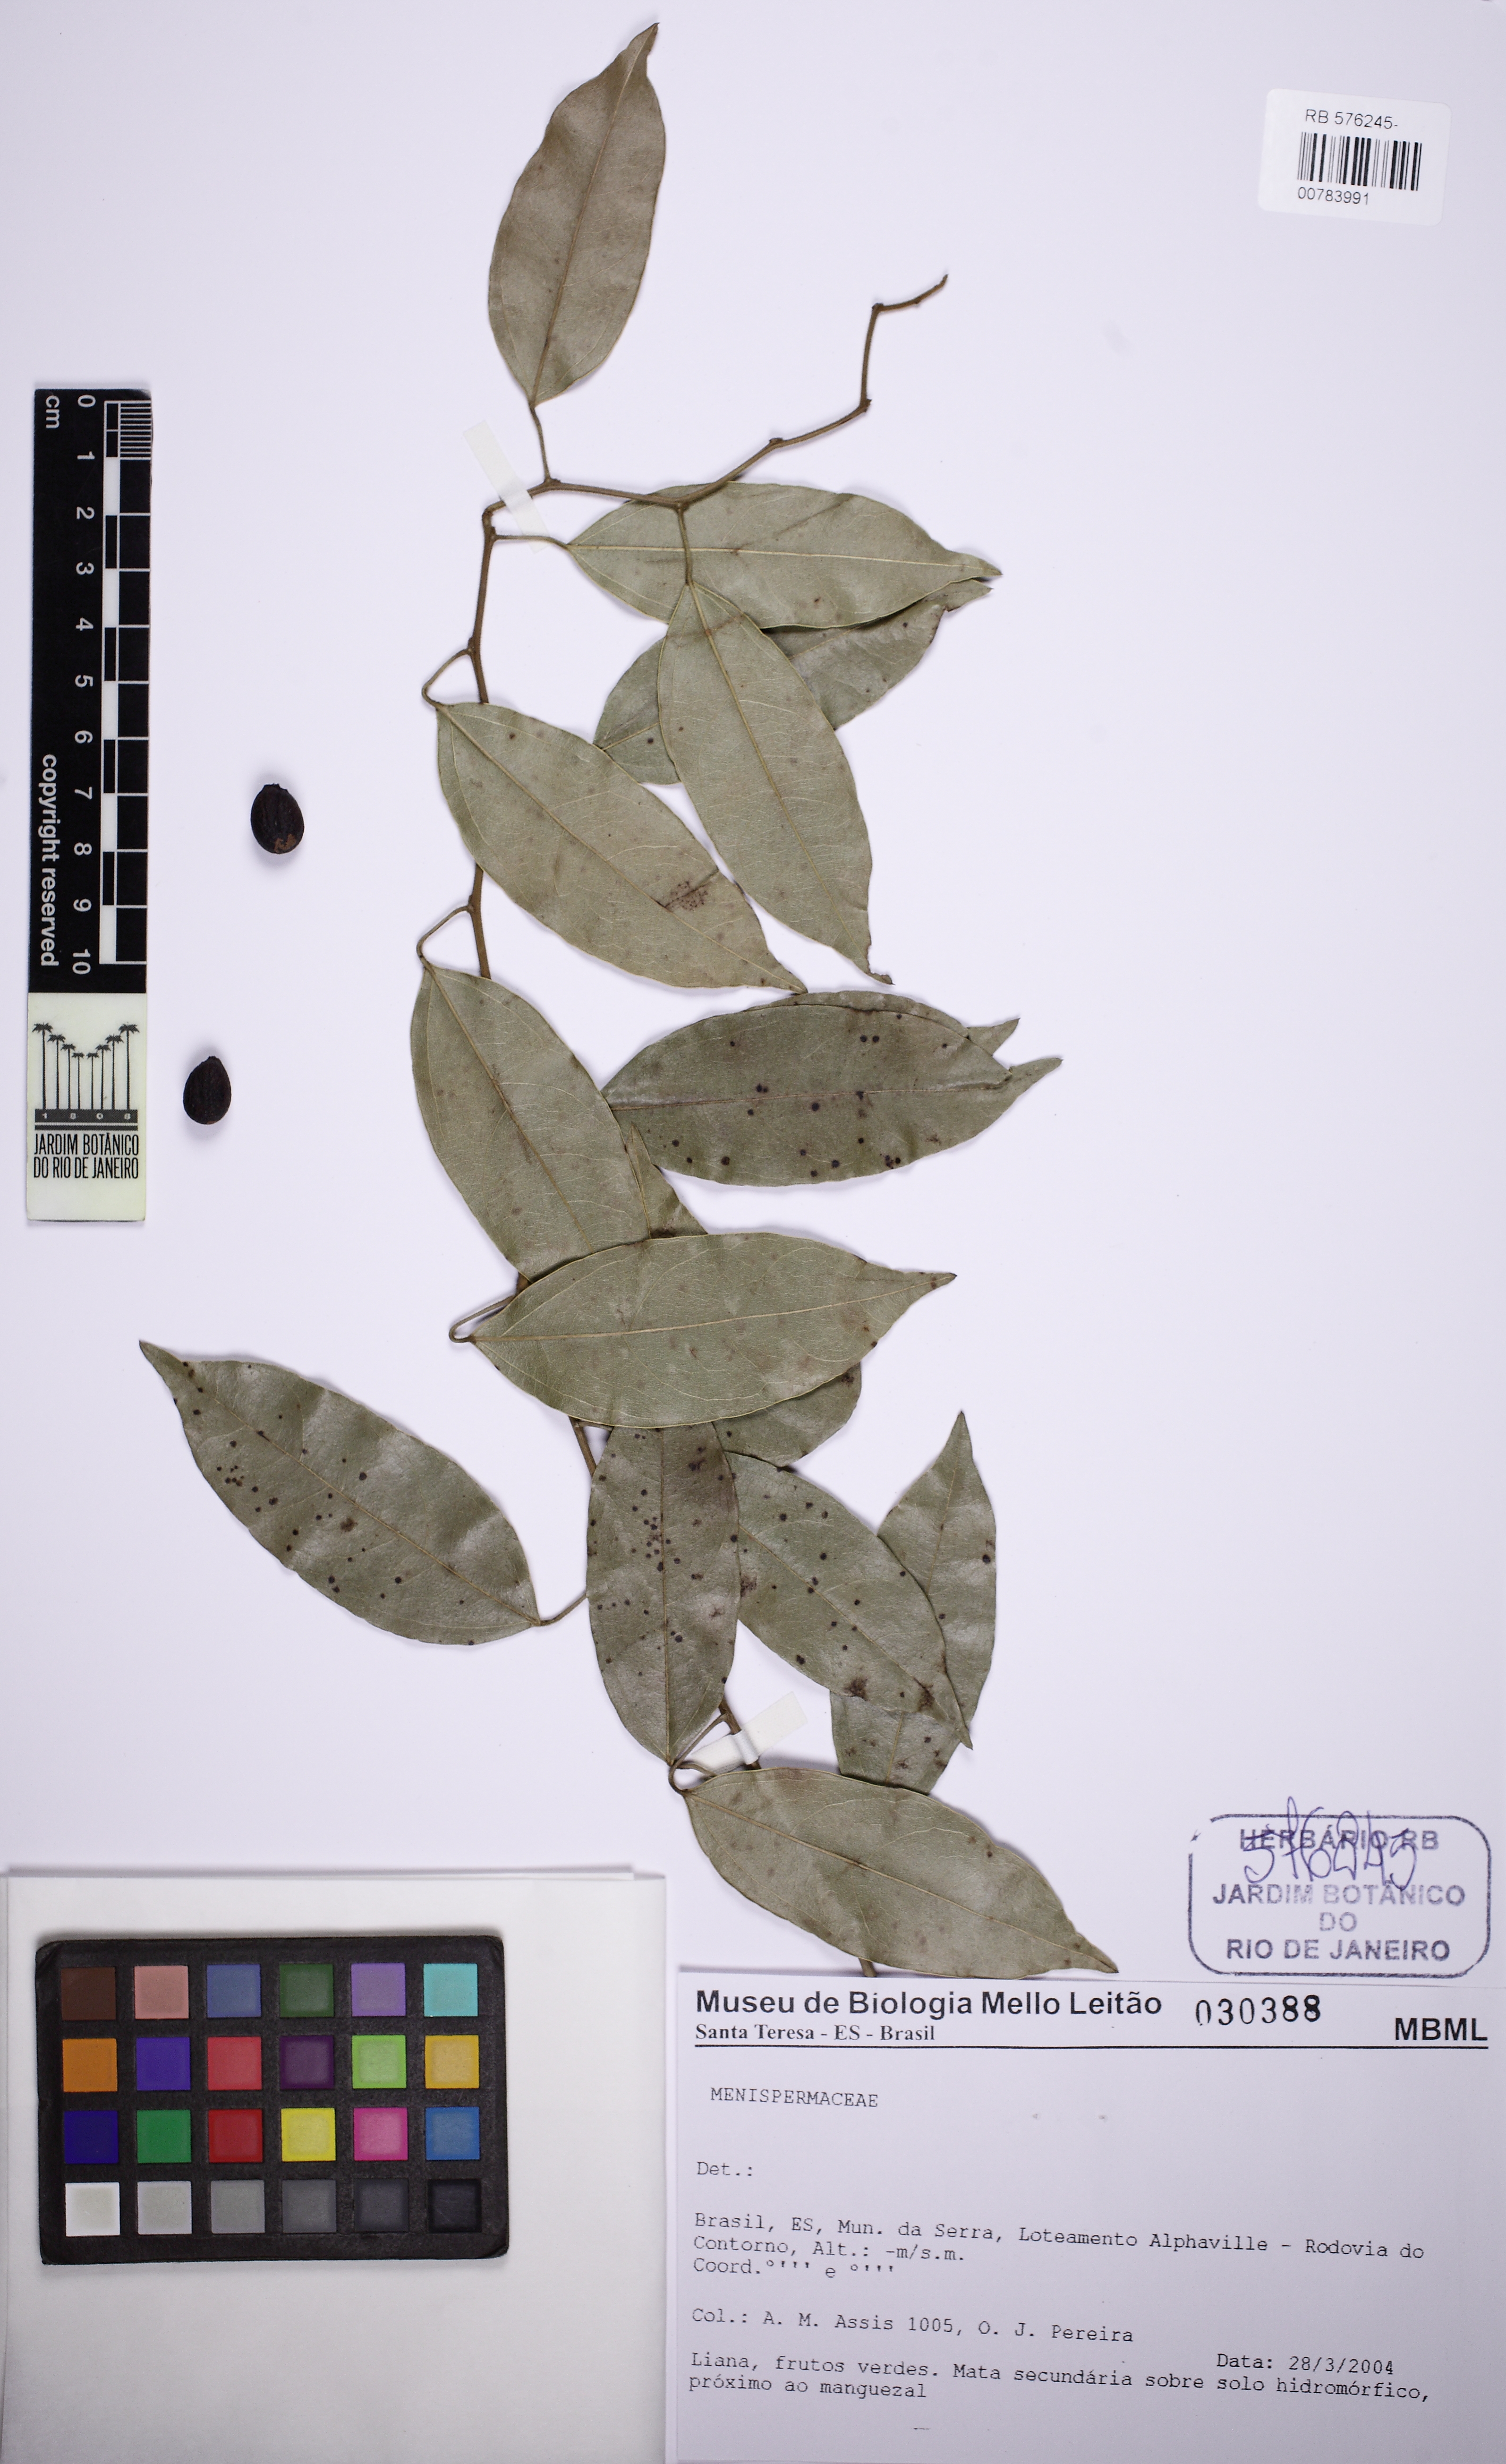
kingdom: Plantae
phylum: Tracheophyta
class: Magnoliopsida
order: Ranunculales
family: Menispermaceae
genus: Orthomene
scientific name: Orthomene schomburgkii
